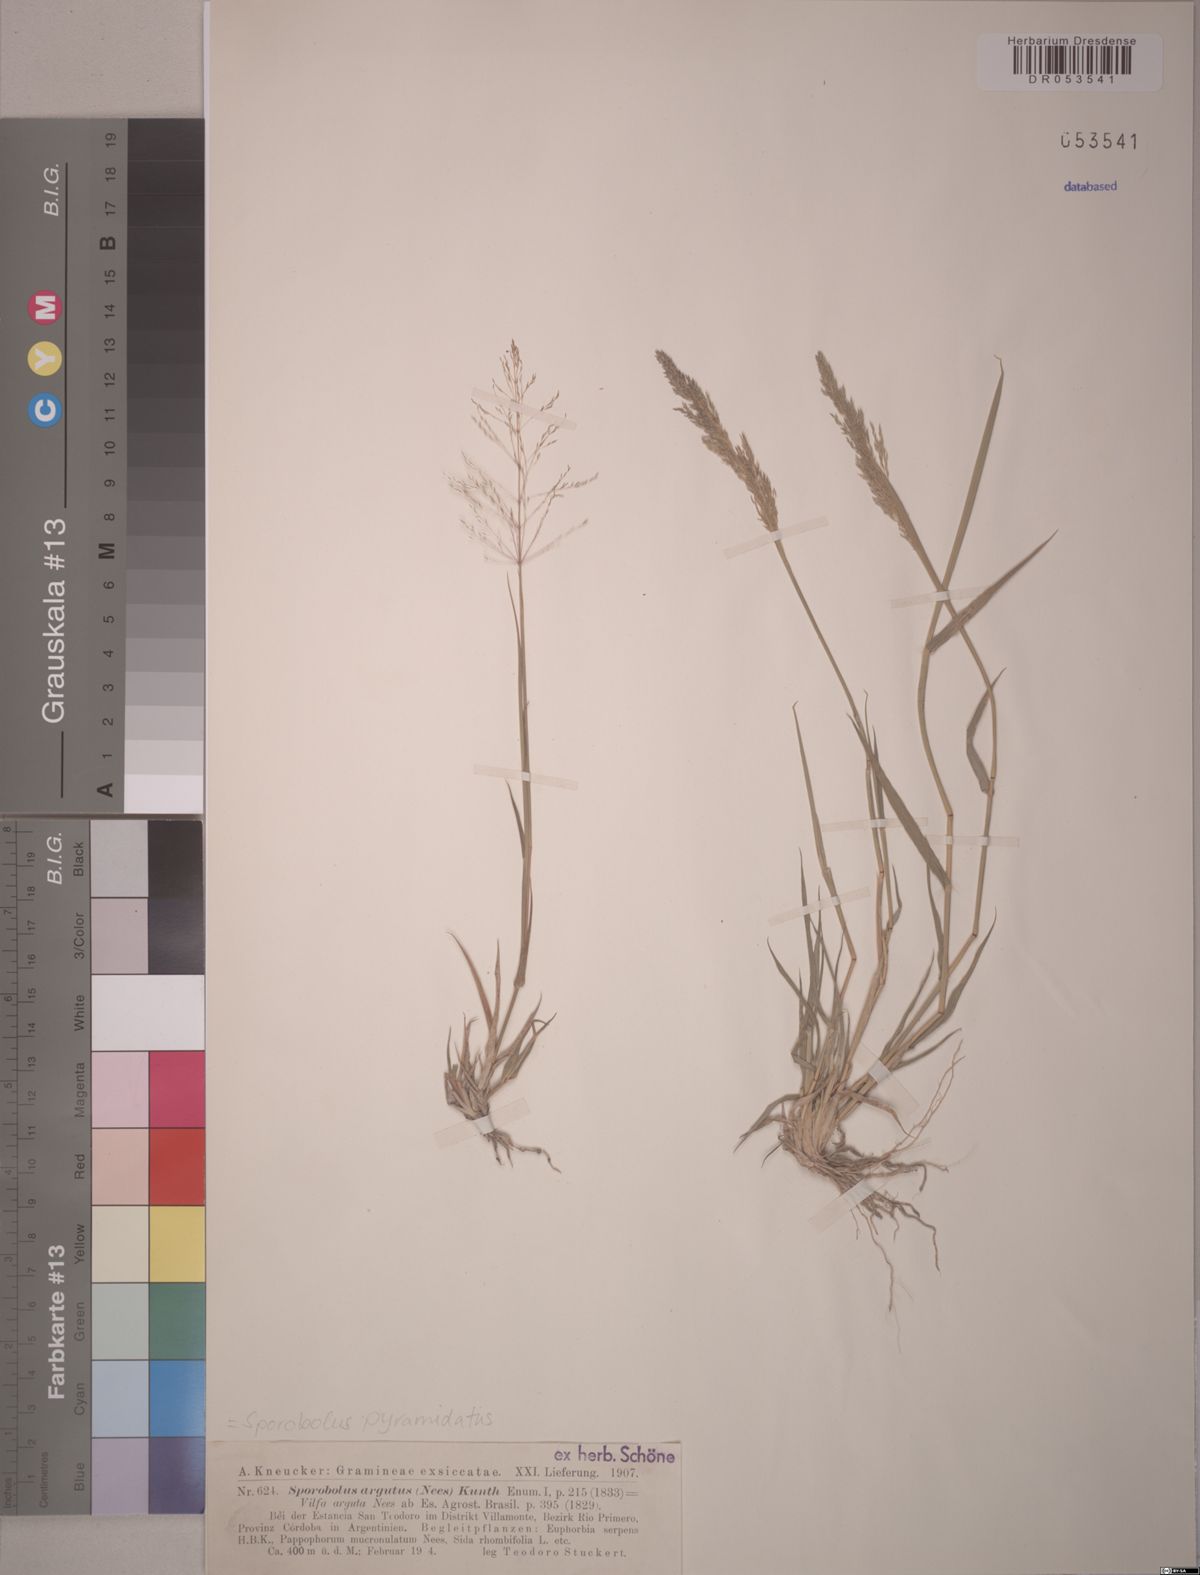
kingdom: Plantae
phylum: Tracheophyta
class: Liliopsida
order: Poales
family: Poaceae
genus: Sporobolus
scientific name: Sporobolus pyramidatus
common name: Whorled dropseed
